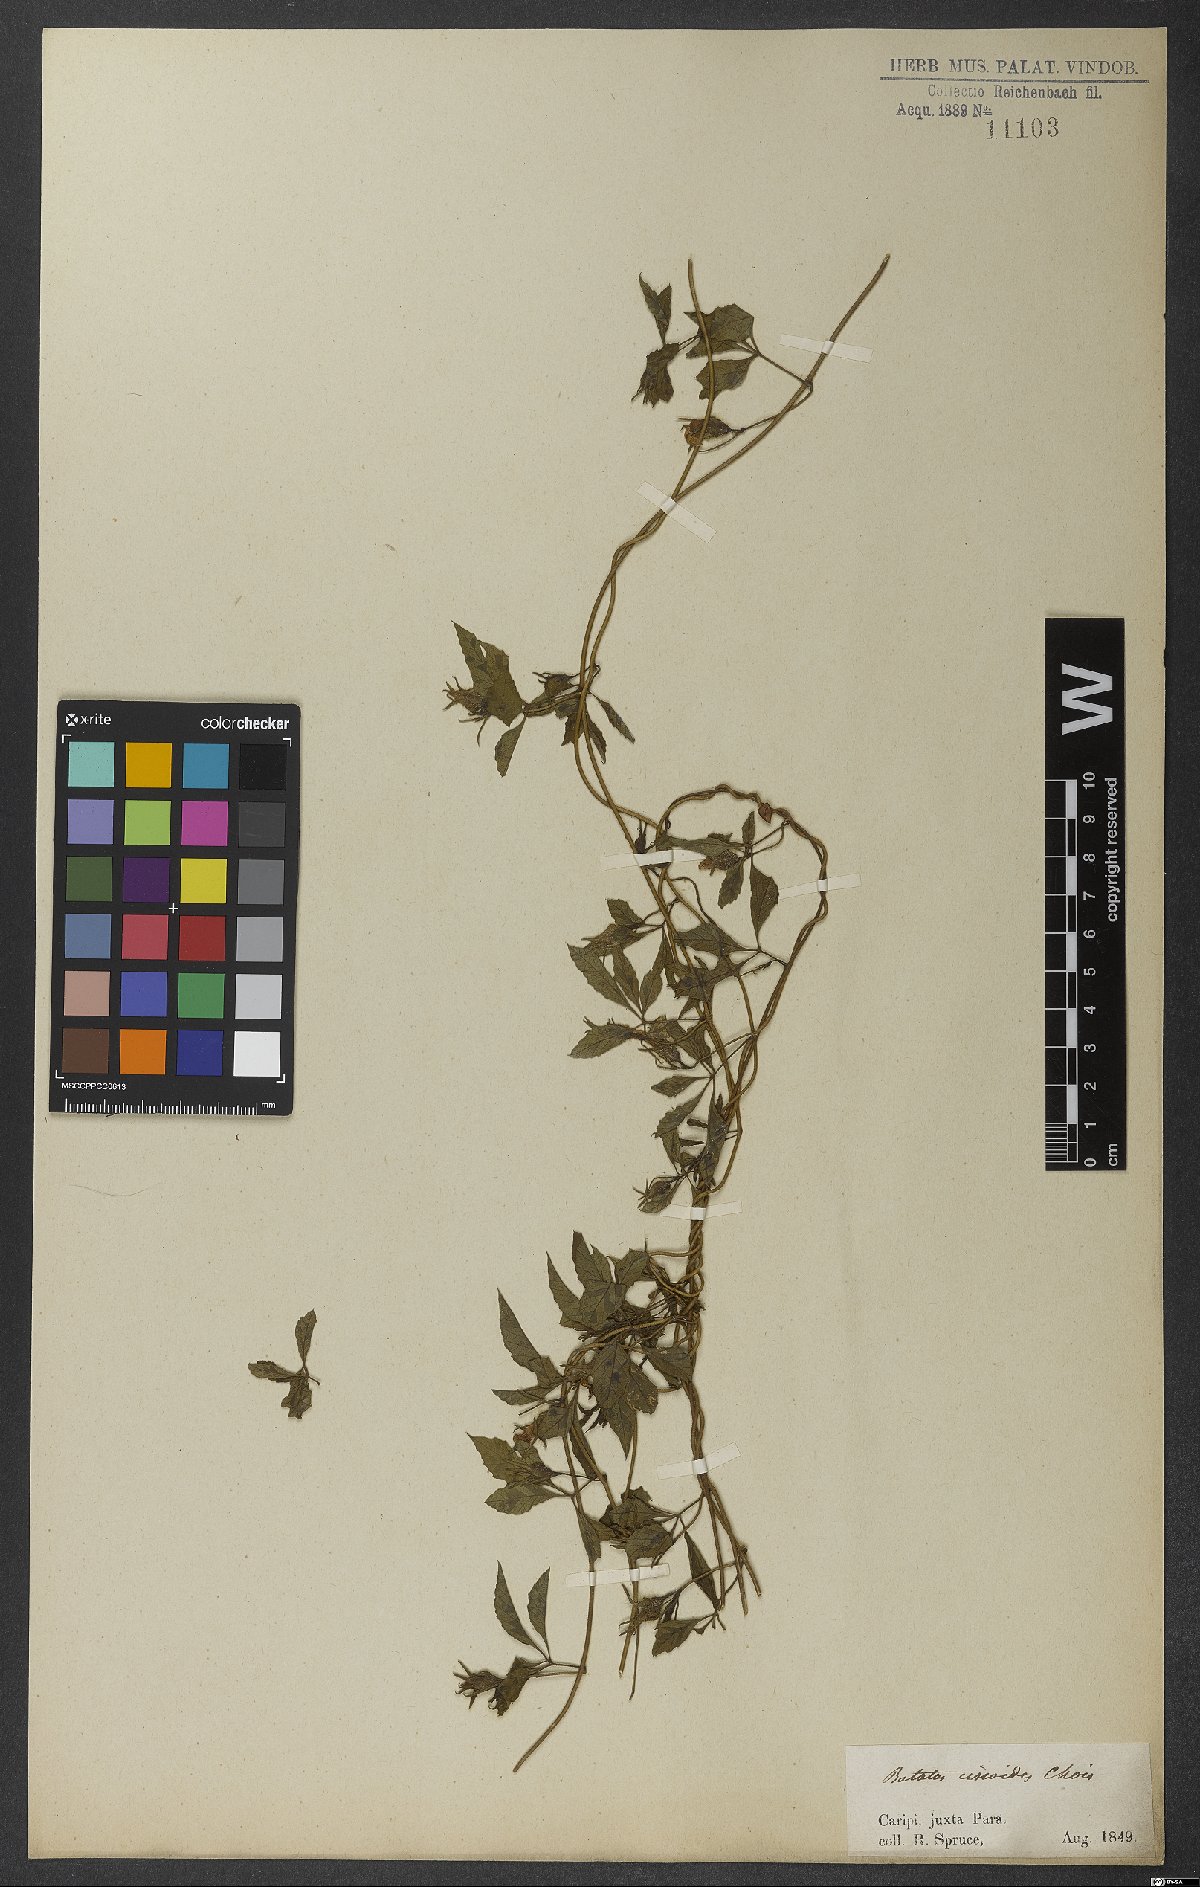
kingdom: Plantae
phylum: Tracheophyta
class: Magnoliopsida
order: Solanales
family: Convolvulaceae
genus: Distimake
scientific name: Distimake cissoides
